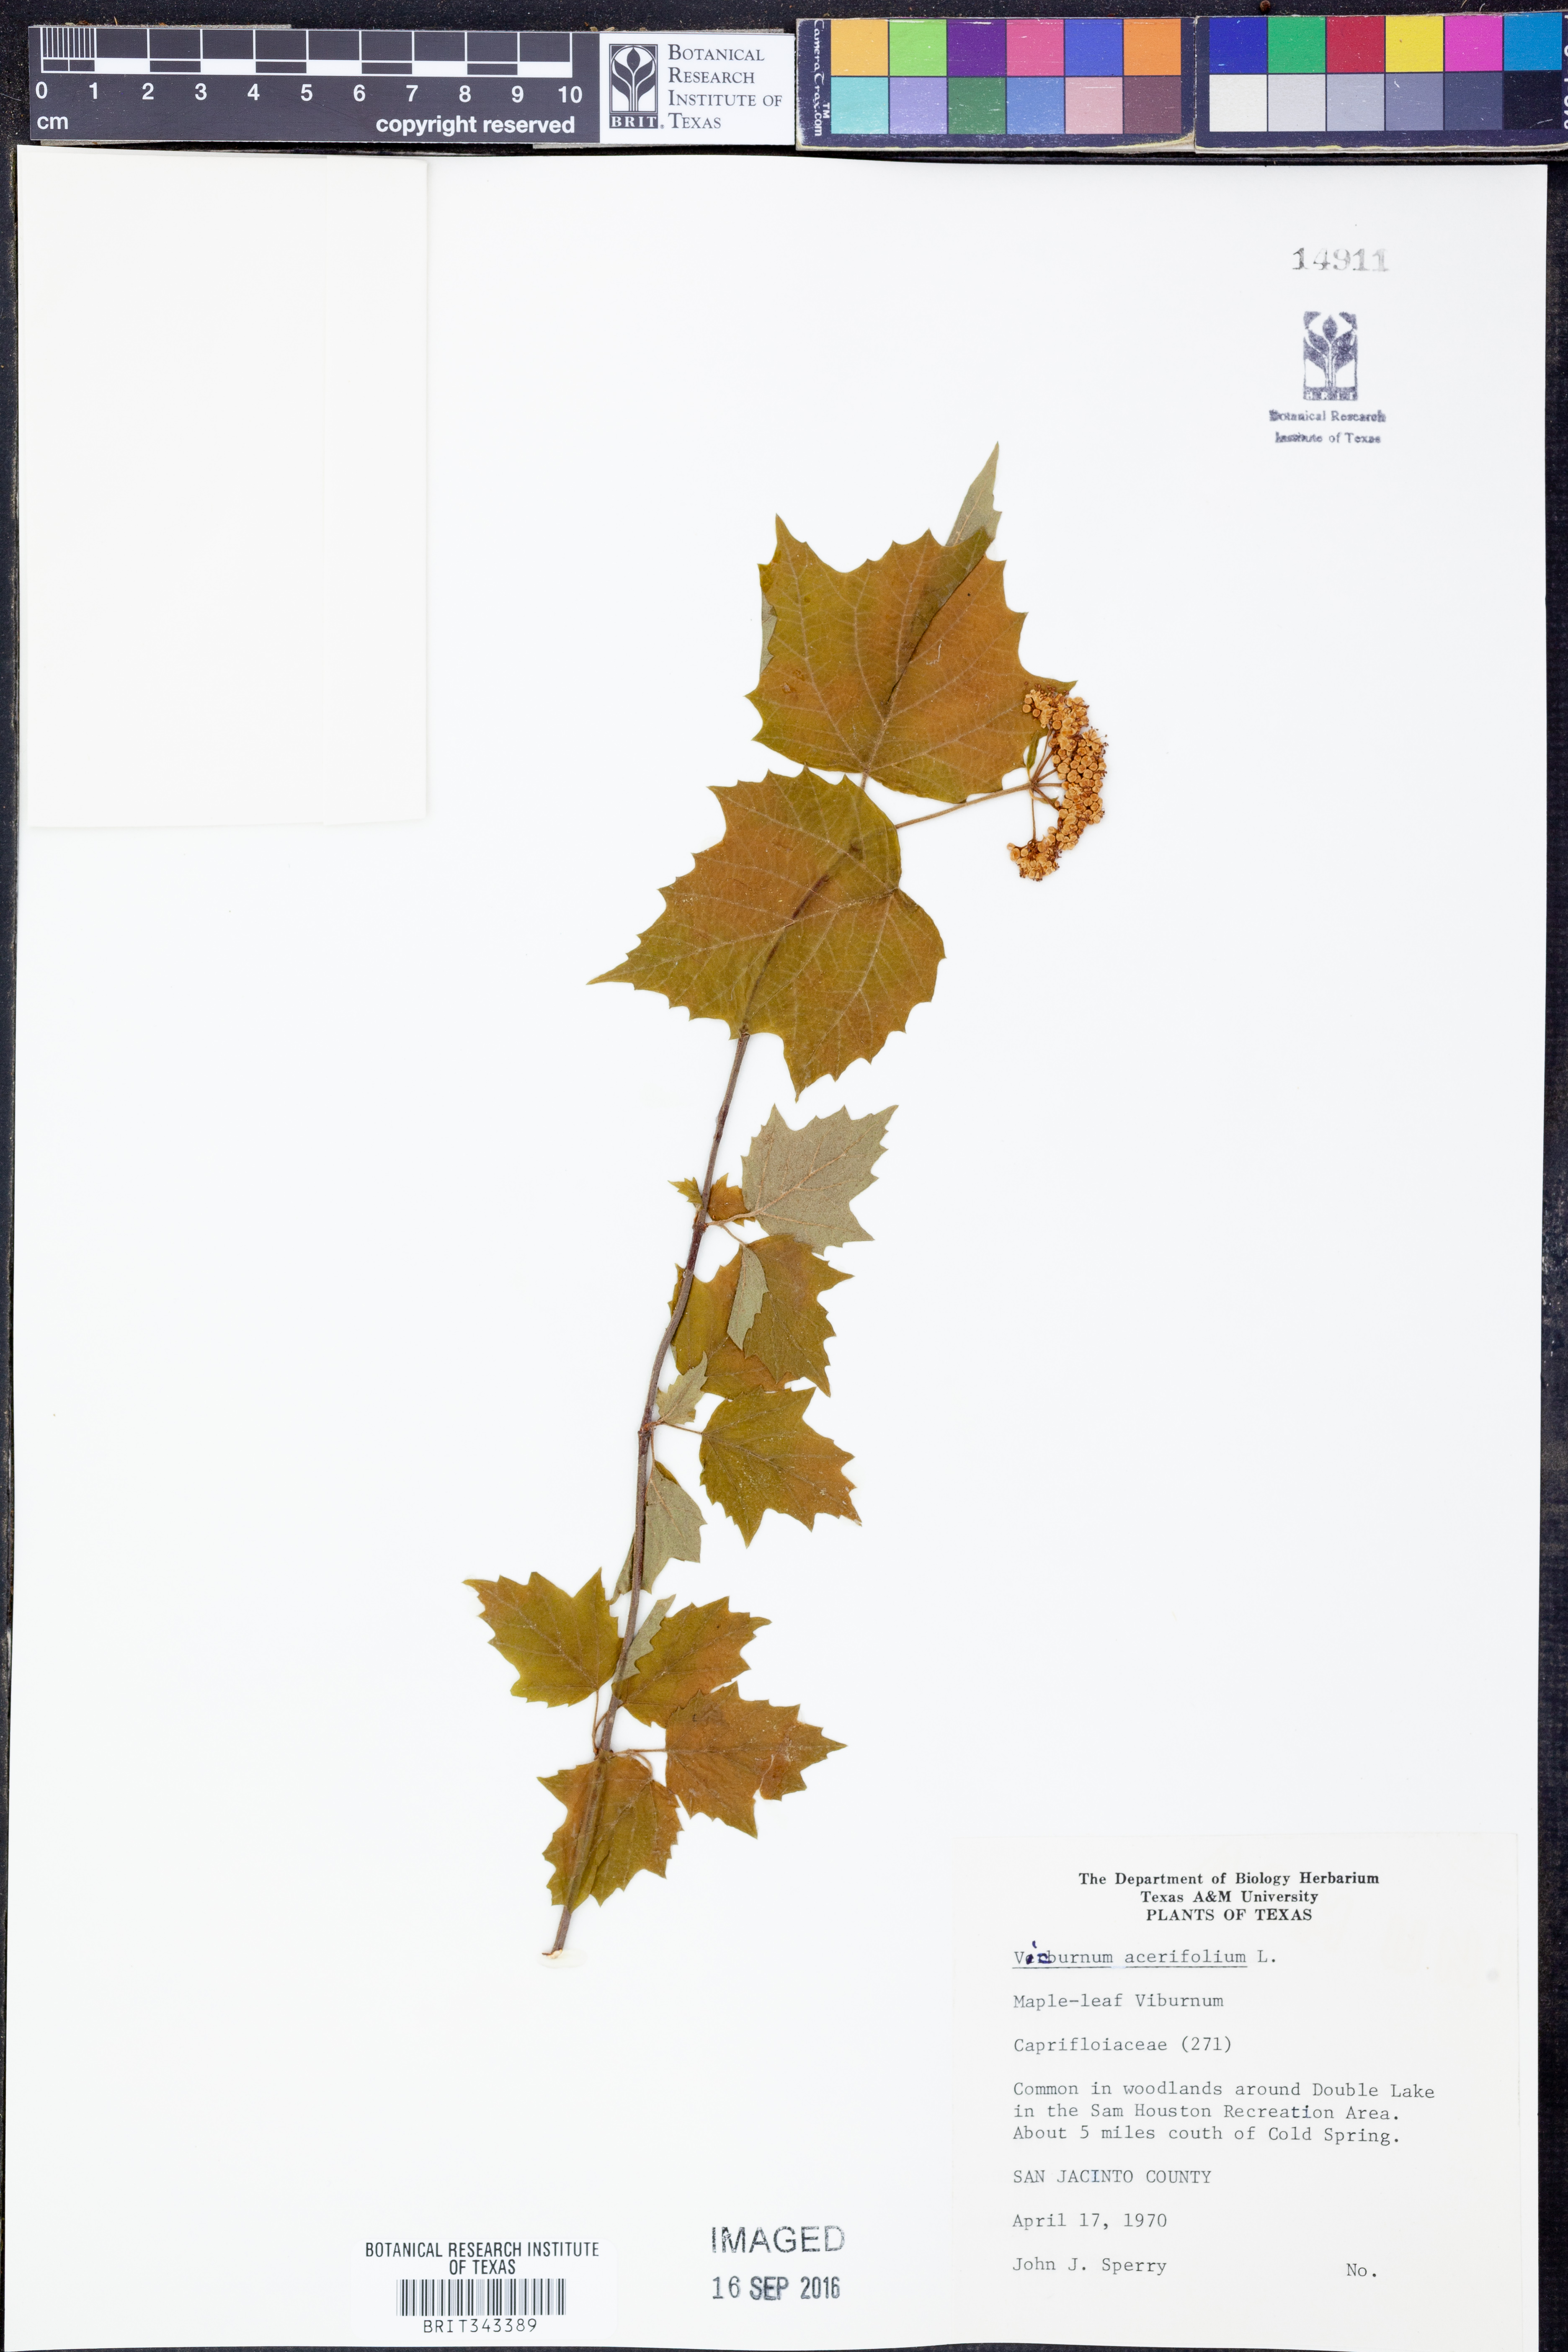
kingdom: Plantae
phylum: Tracheophyta
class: Magnoliopsida
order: Dipsacales
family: Viburnaceae
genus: Viburnum
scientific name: Viburnum acerifolium
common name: Dockmackie
